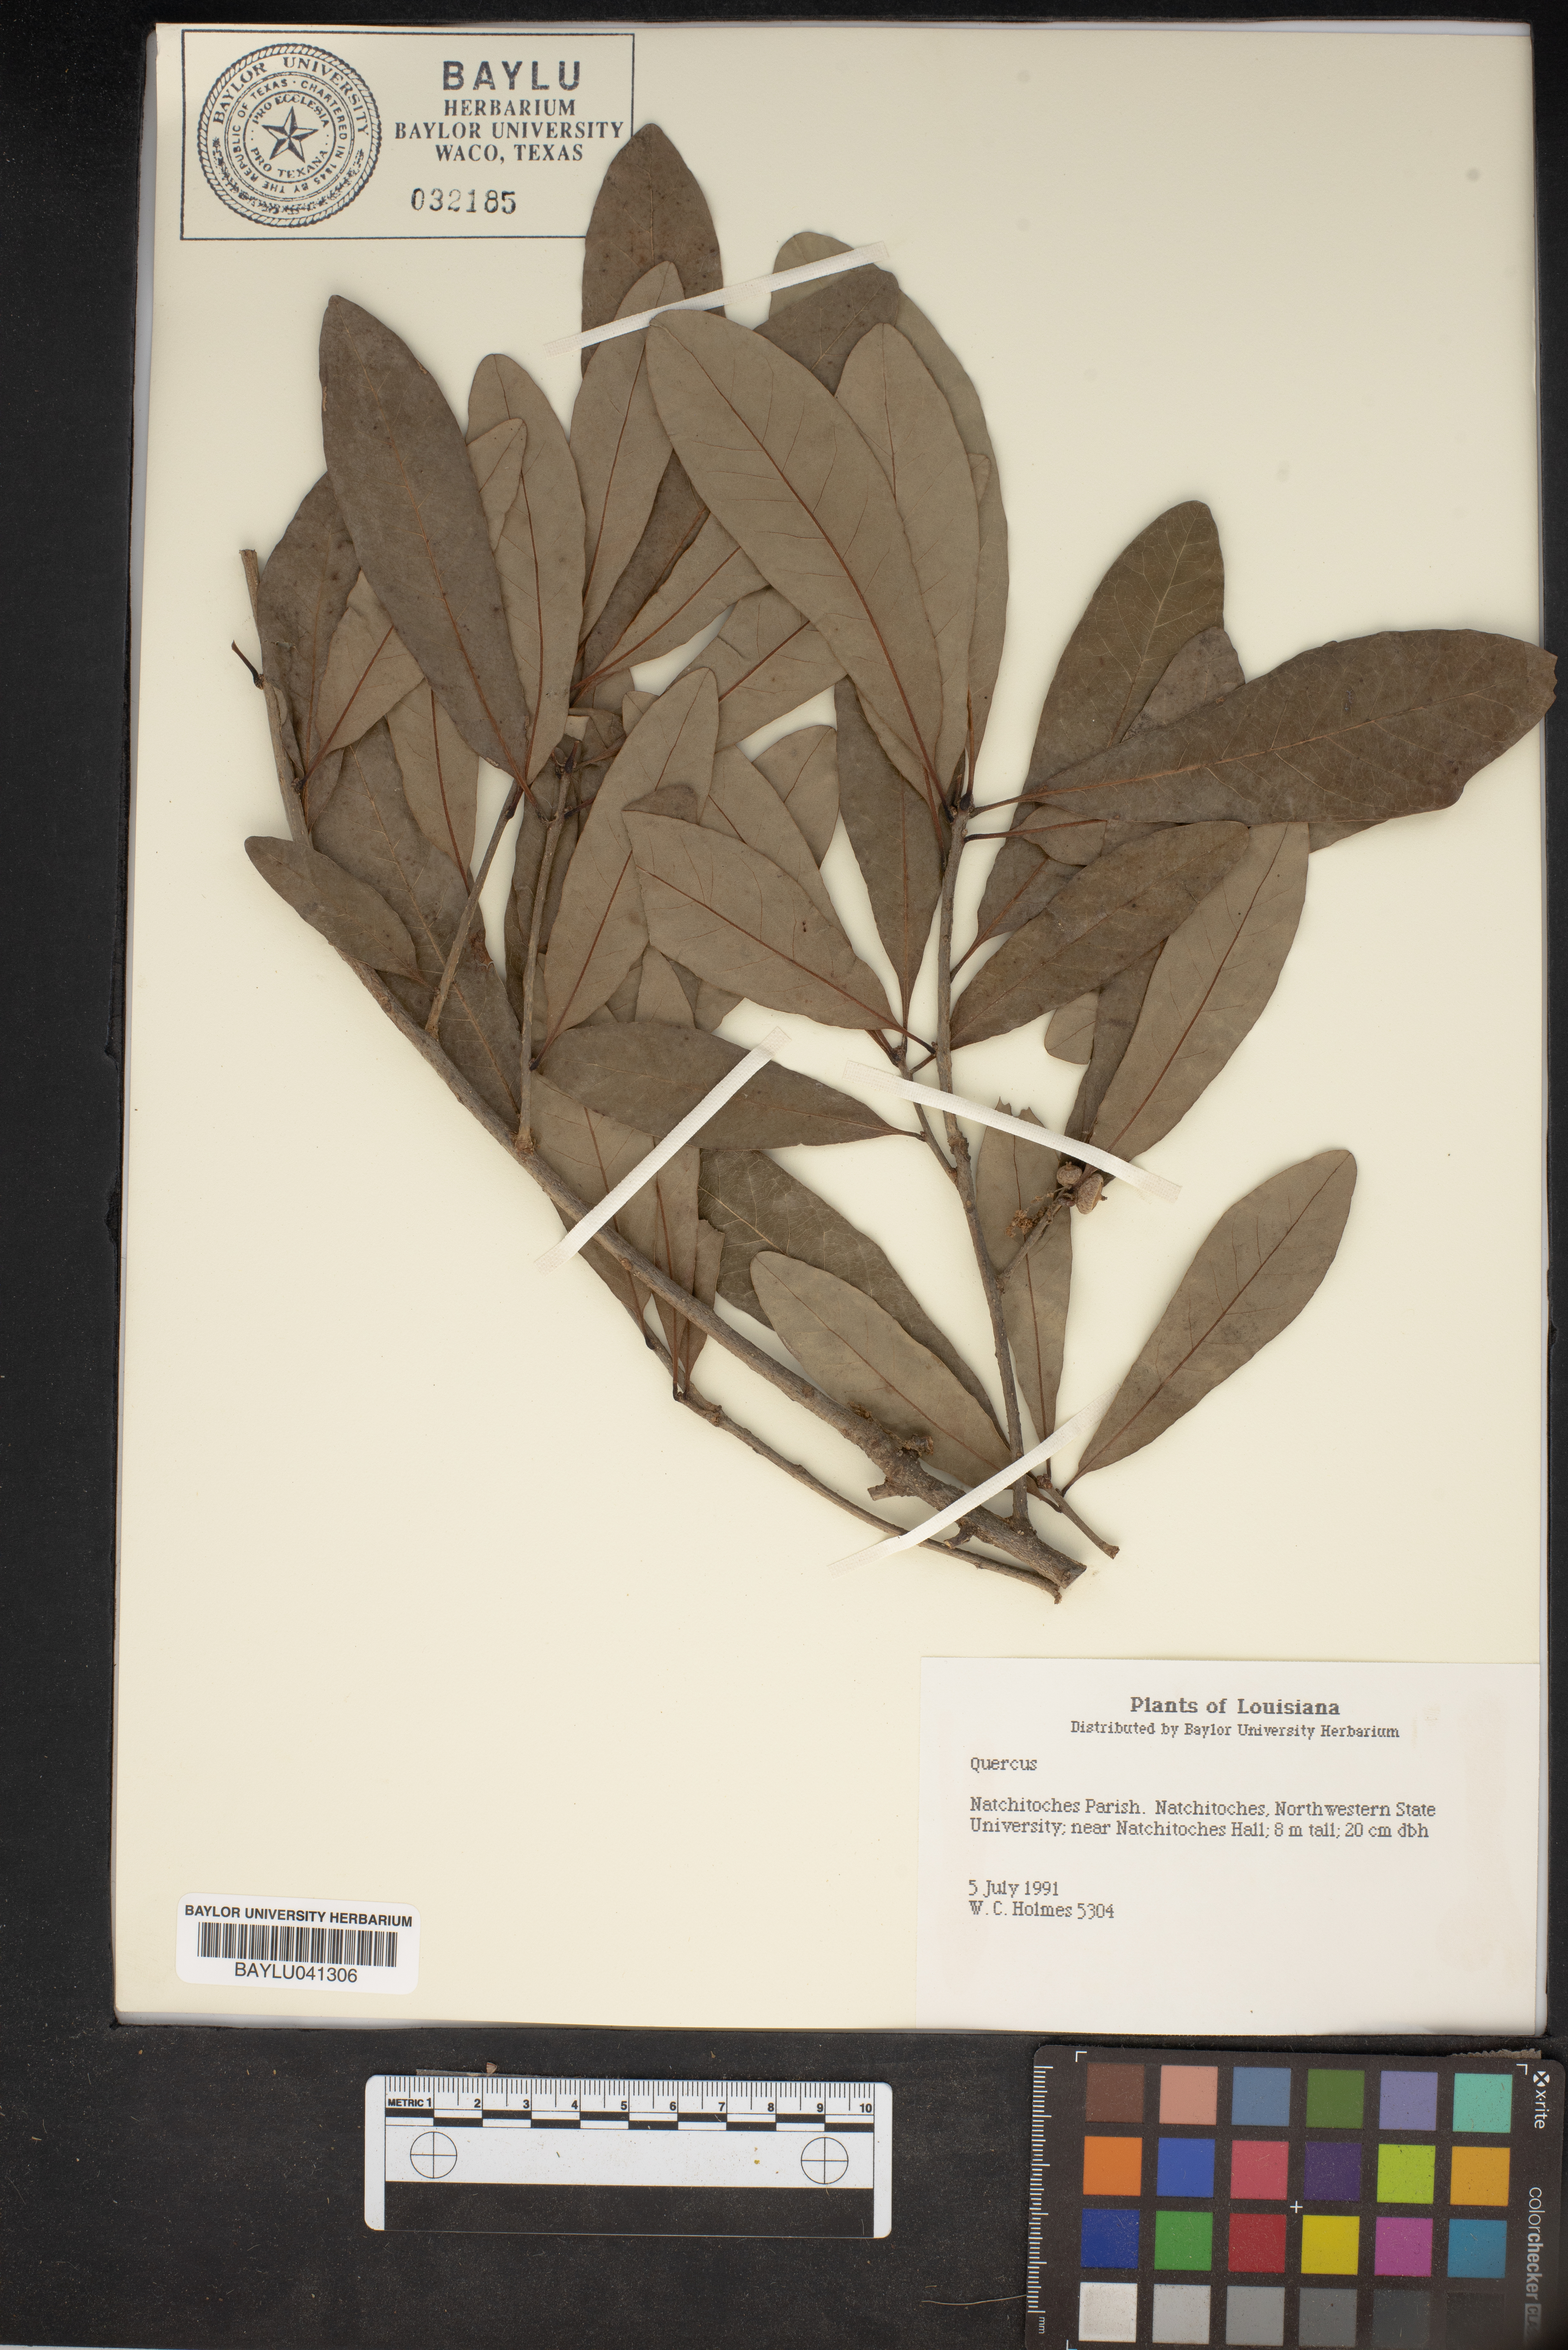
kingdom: Plantae
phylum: Tracheophyta
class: Magnoliopsida
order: Fagales
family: Fagaceae
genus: Quercus
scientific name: Quercus
